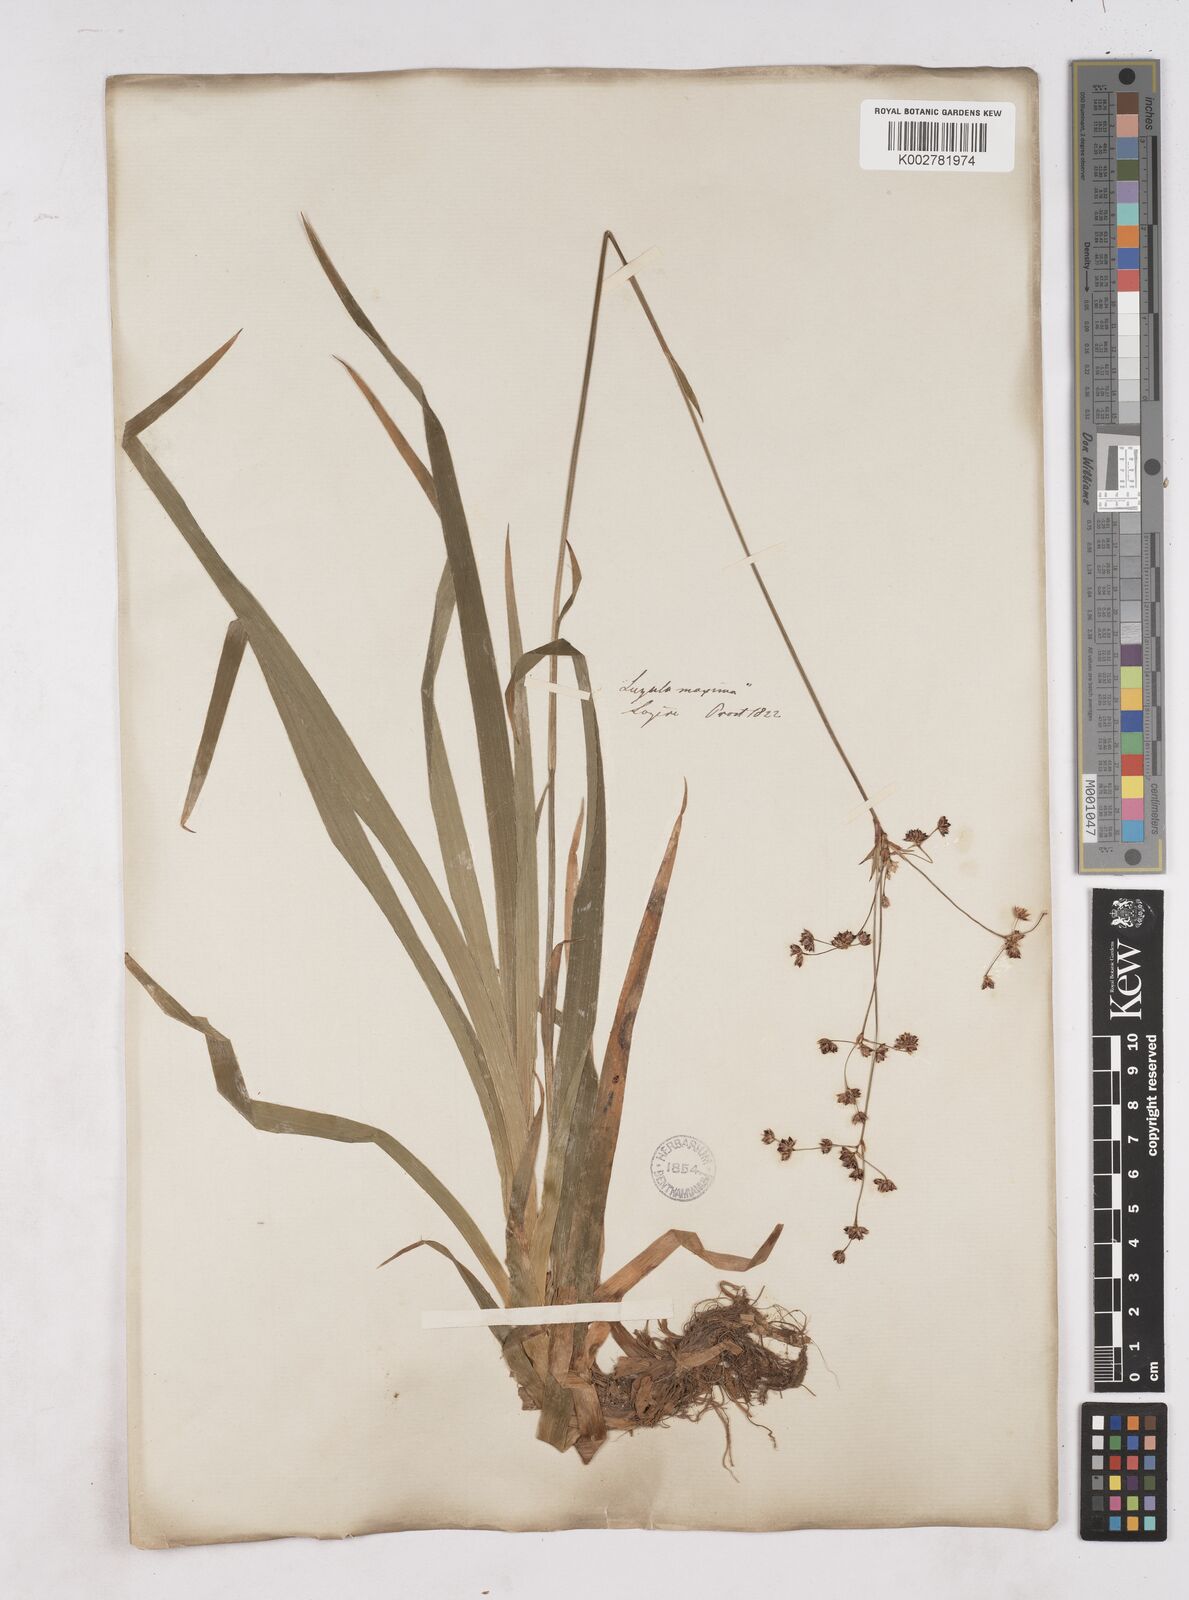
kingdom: Plantae
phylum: Tracheophyta
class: Liliopsida
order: Poales
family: Juncaceae
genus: Luzula
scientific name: Luzula sylvatica
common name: Great wood-rush
